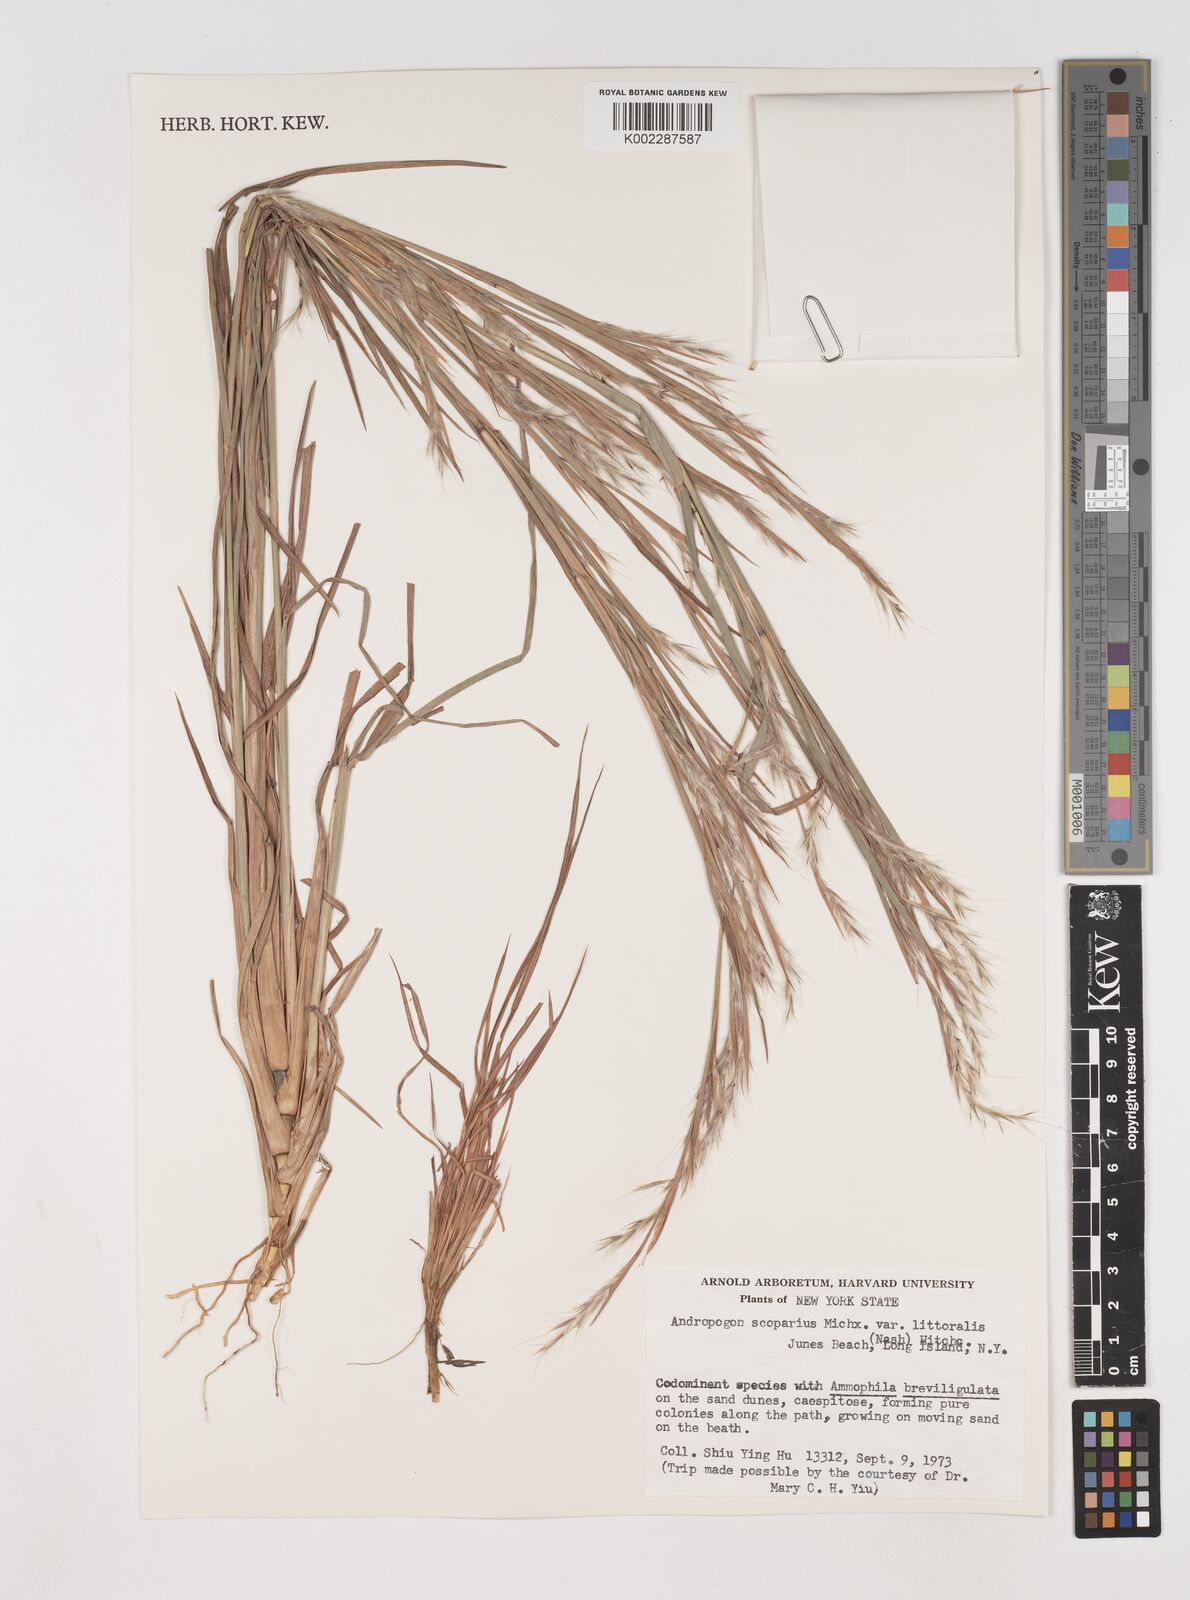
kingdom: Plantae
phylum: Tracheophyta
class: Liliopsida
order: Poales
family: Poaceae
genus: Schizachyrium
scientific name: Schizachyrium scoparium
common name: Little bluestem
